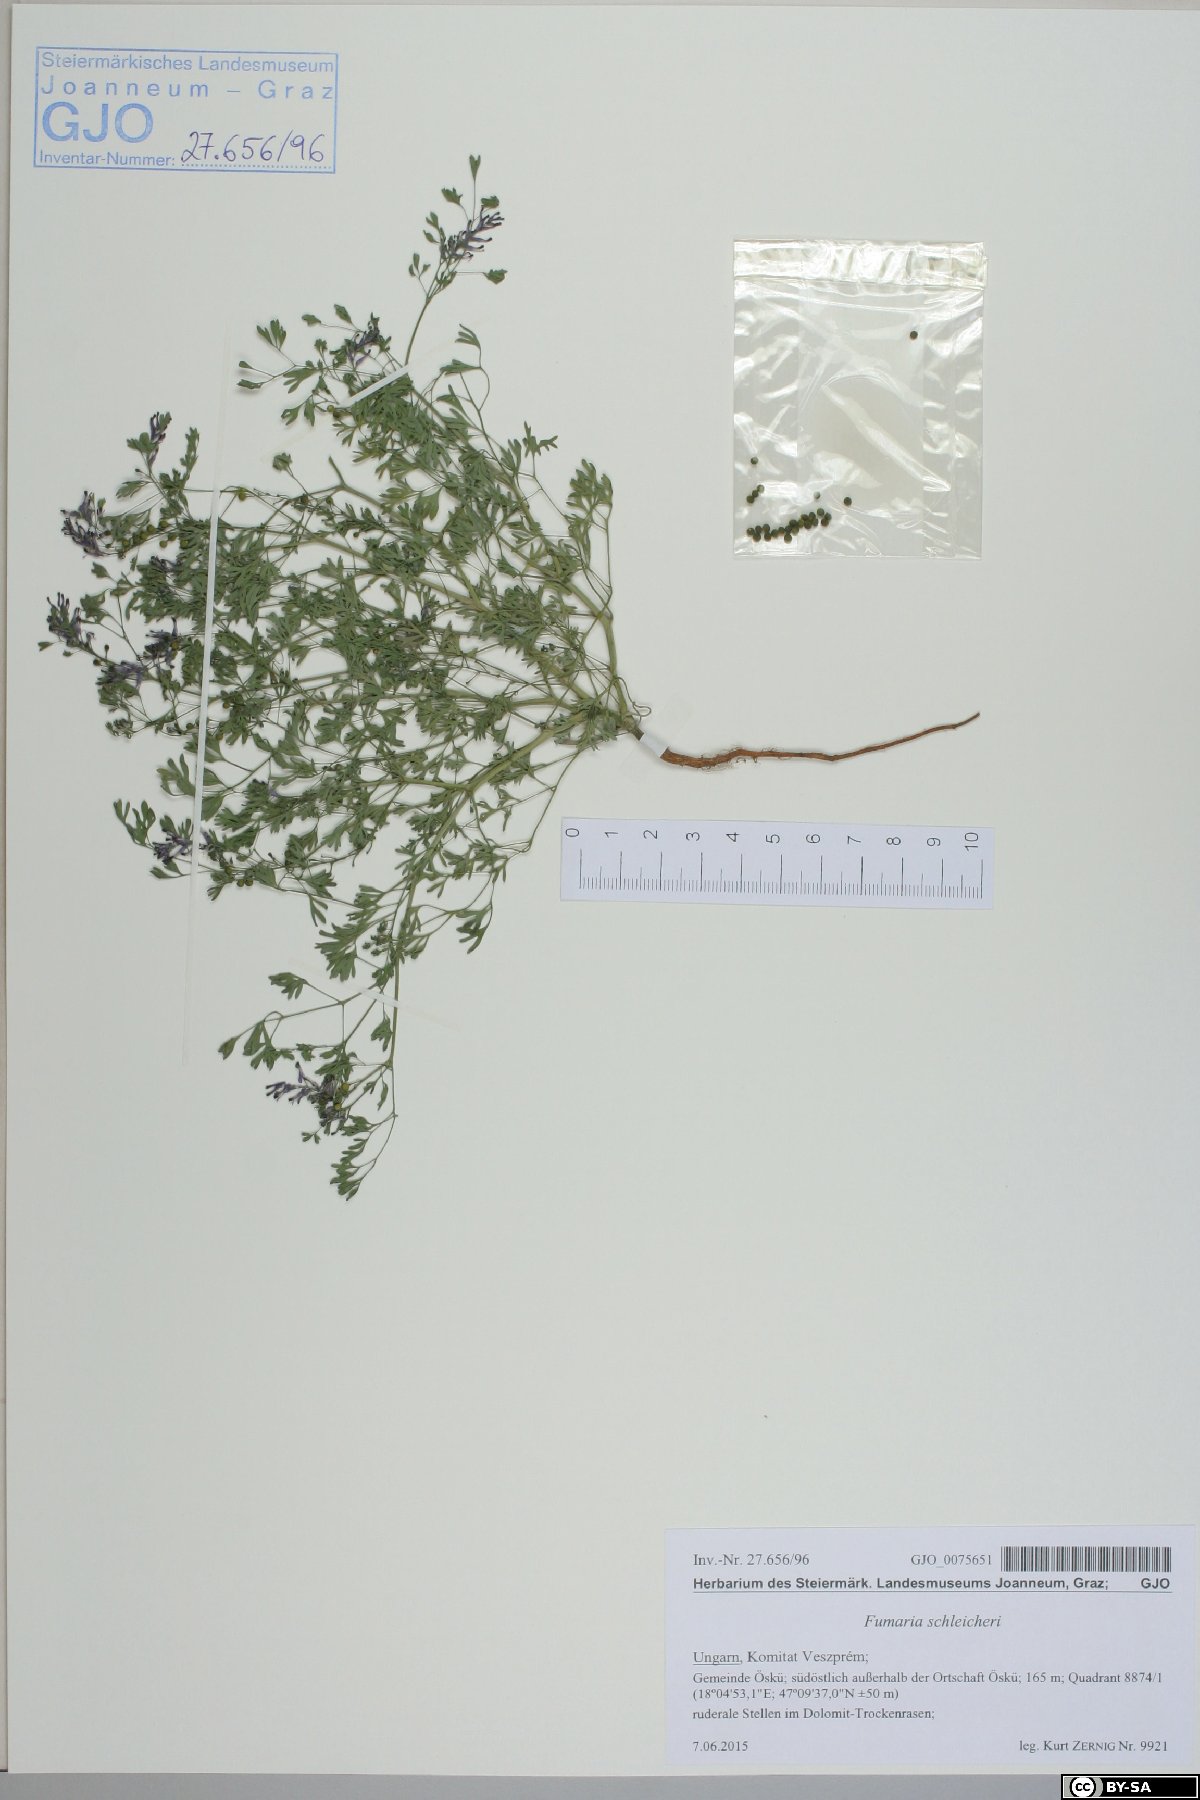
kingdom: Plantae
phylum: Tracheophyta
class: Magnoliopsida
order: Ranunculales
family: Papaveraceae
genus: Fumaria
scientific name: Fumaria schleicheri
